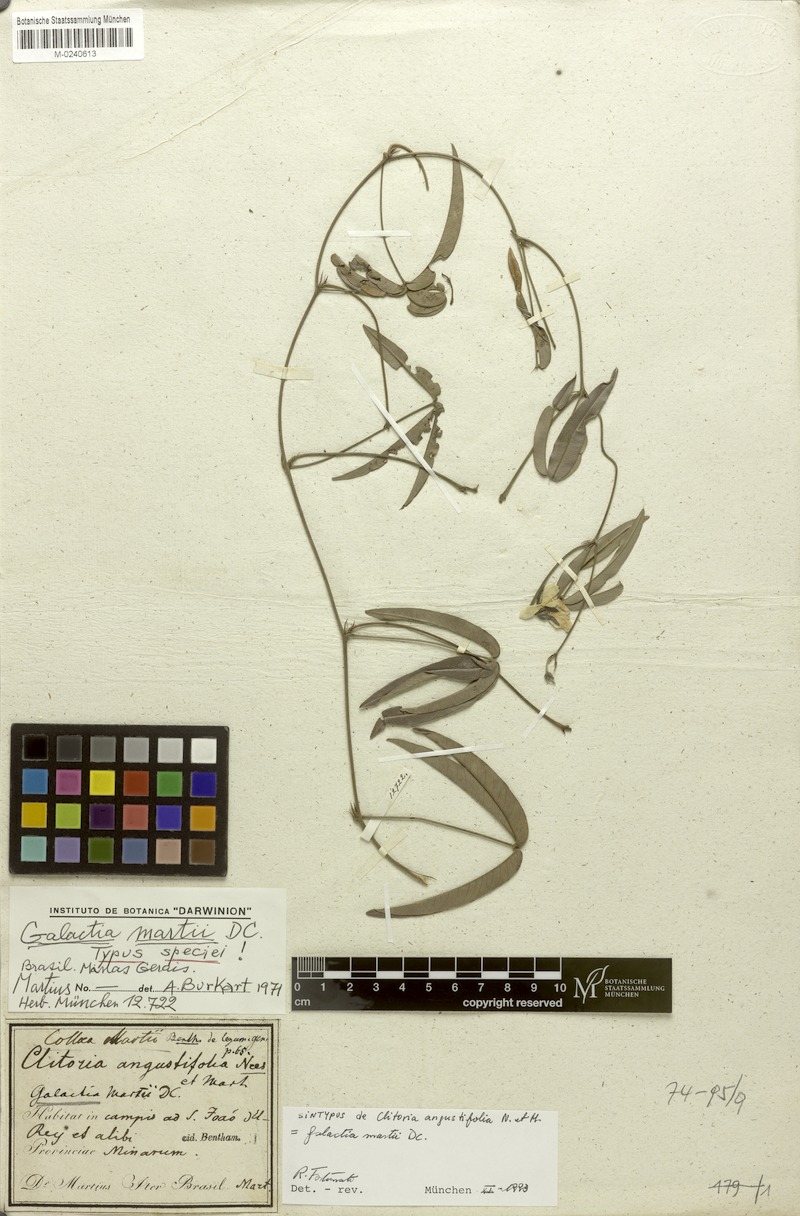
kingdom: Plantae
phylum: Tracheophyta
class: Magnoliopsida
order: Fabales
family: Fabaceae
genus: Betencourtia
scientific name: Betencourtia martii
